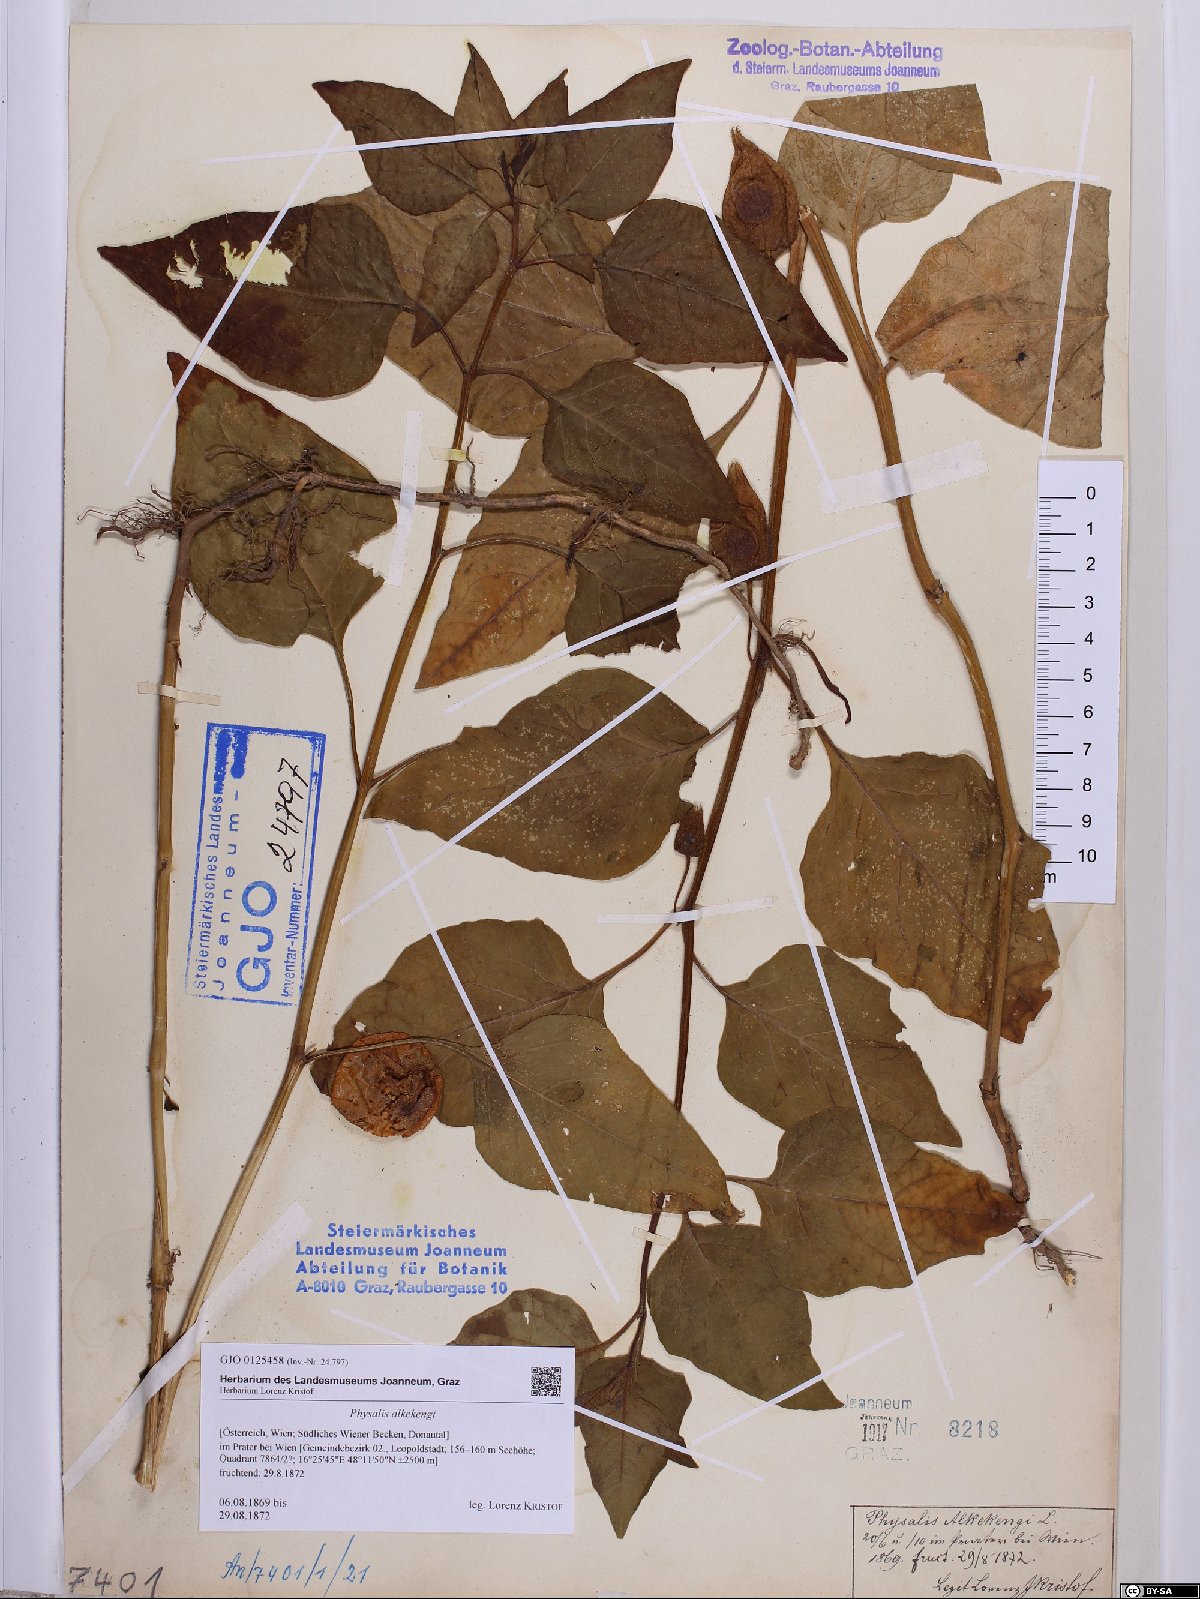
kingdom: Plantae
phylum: Tracheophyta
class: Magnoliopsida
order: Solanales
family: Solanaceae
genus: Alkekengi
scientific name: Alkekengi officinarum
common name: Japanese-lantern
